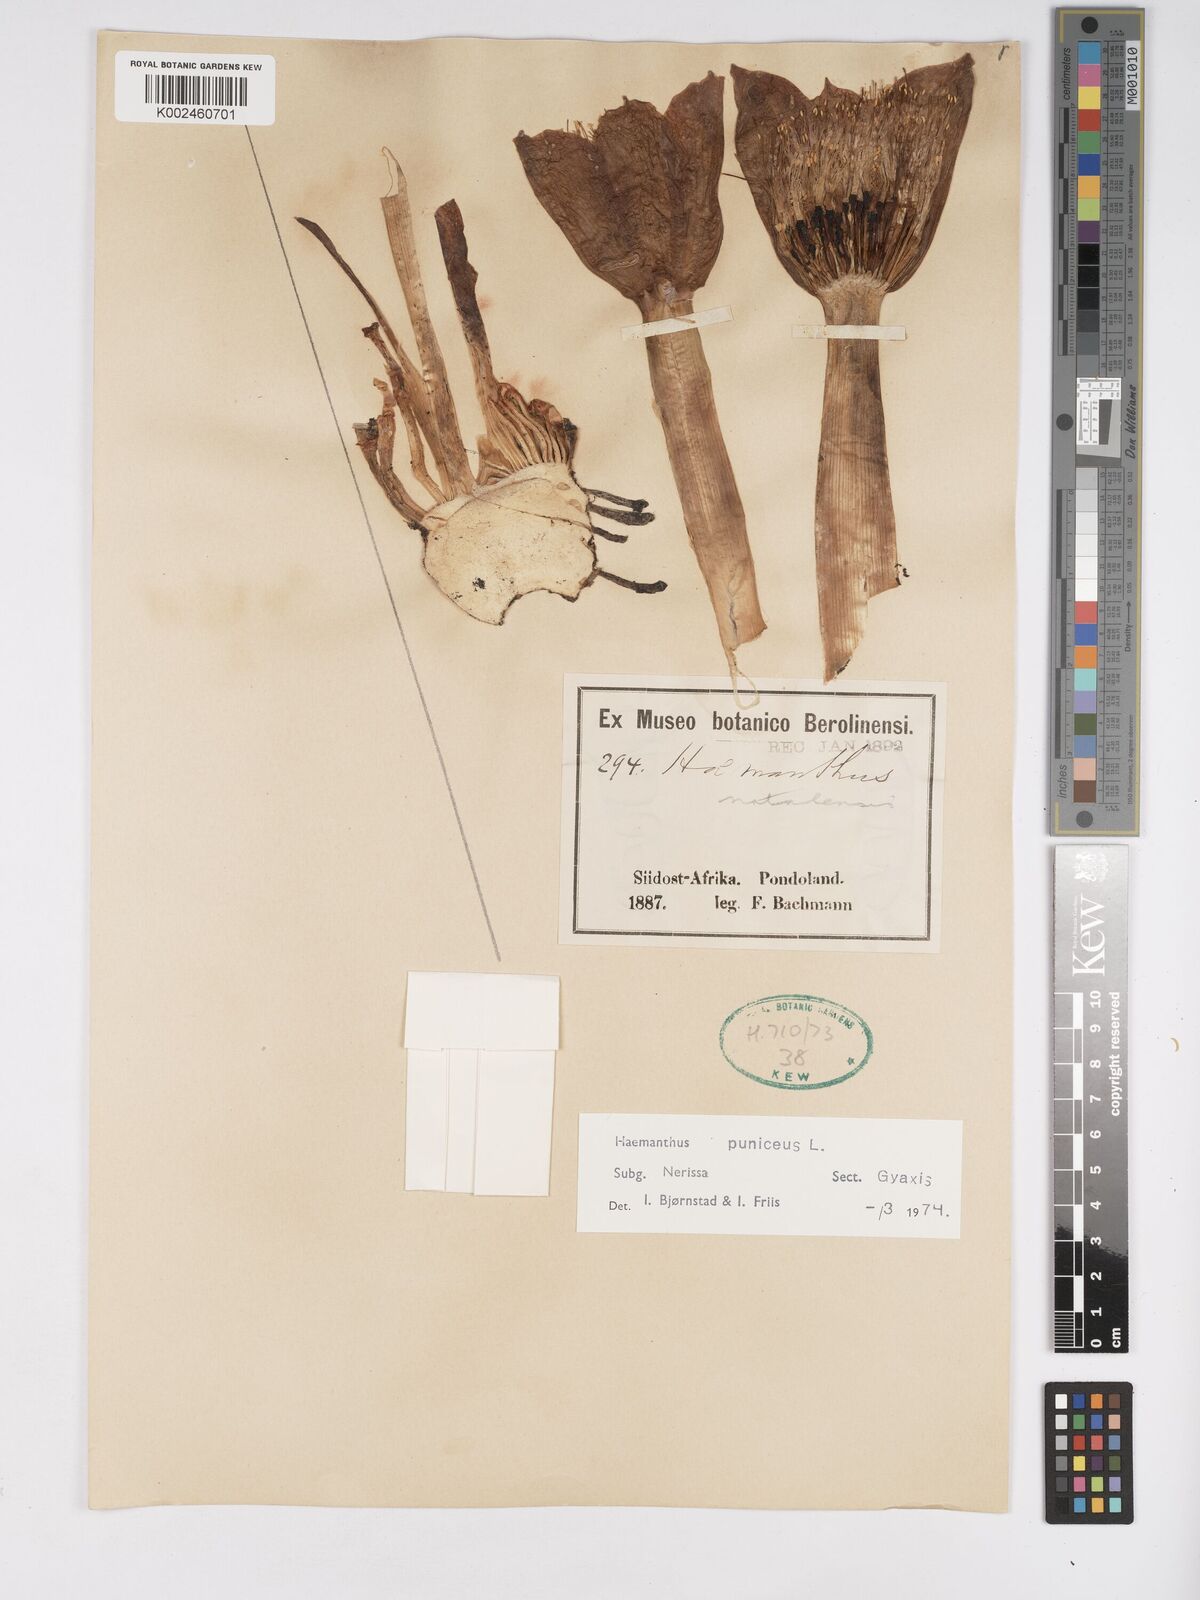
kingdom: Plantae
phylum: Tracheophyta
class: Liliopsida
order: Asparagales
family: Amaryllidaceae
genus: Scadoxus
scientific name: Scadoxus puniceus
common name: Royal-paintbrush
